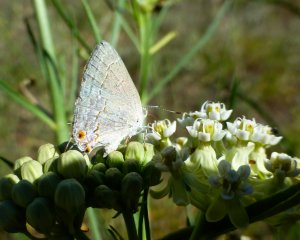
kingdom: Animalia
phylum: Arthropoda
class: Insecta
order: Lepidoptera
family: Lycaenidae
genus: Ministrymon
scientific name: Ministrymon leda
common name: Leda Ministreak
